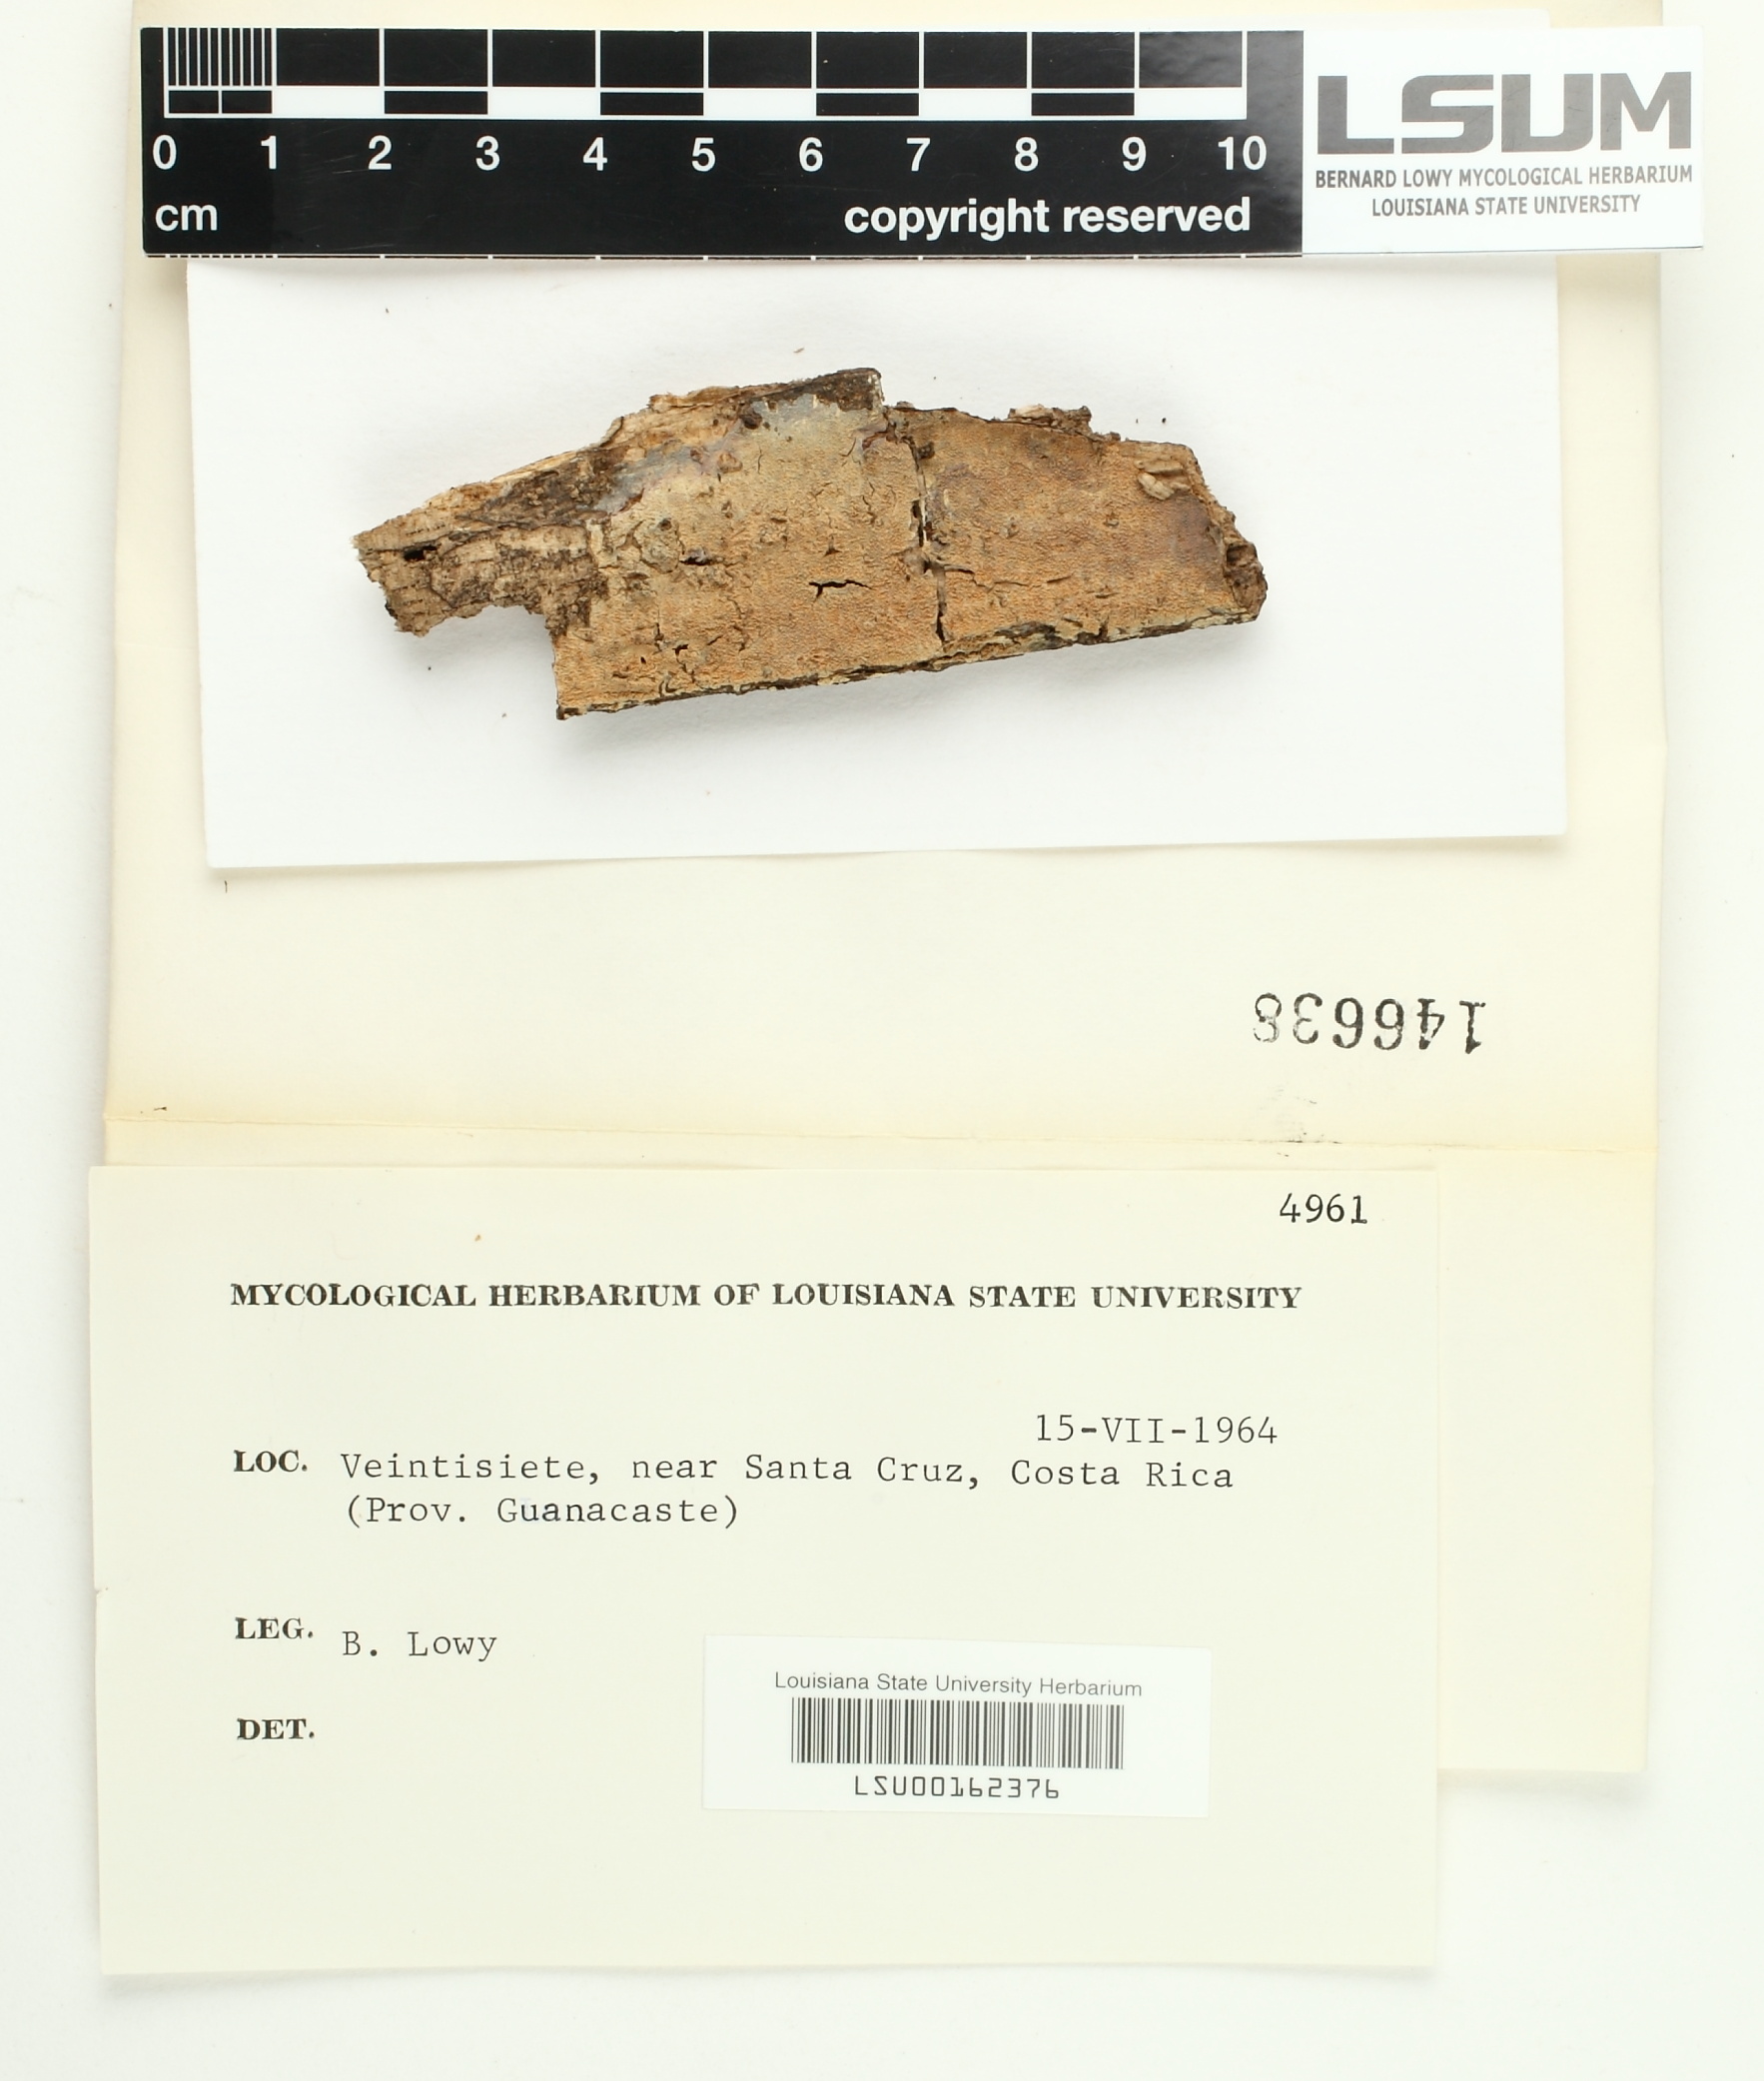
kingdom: Fungi
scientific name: Fungi
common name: Fungi
